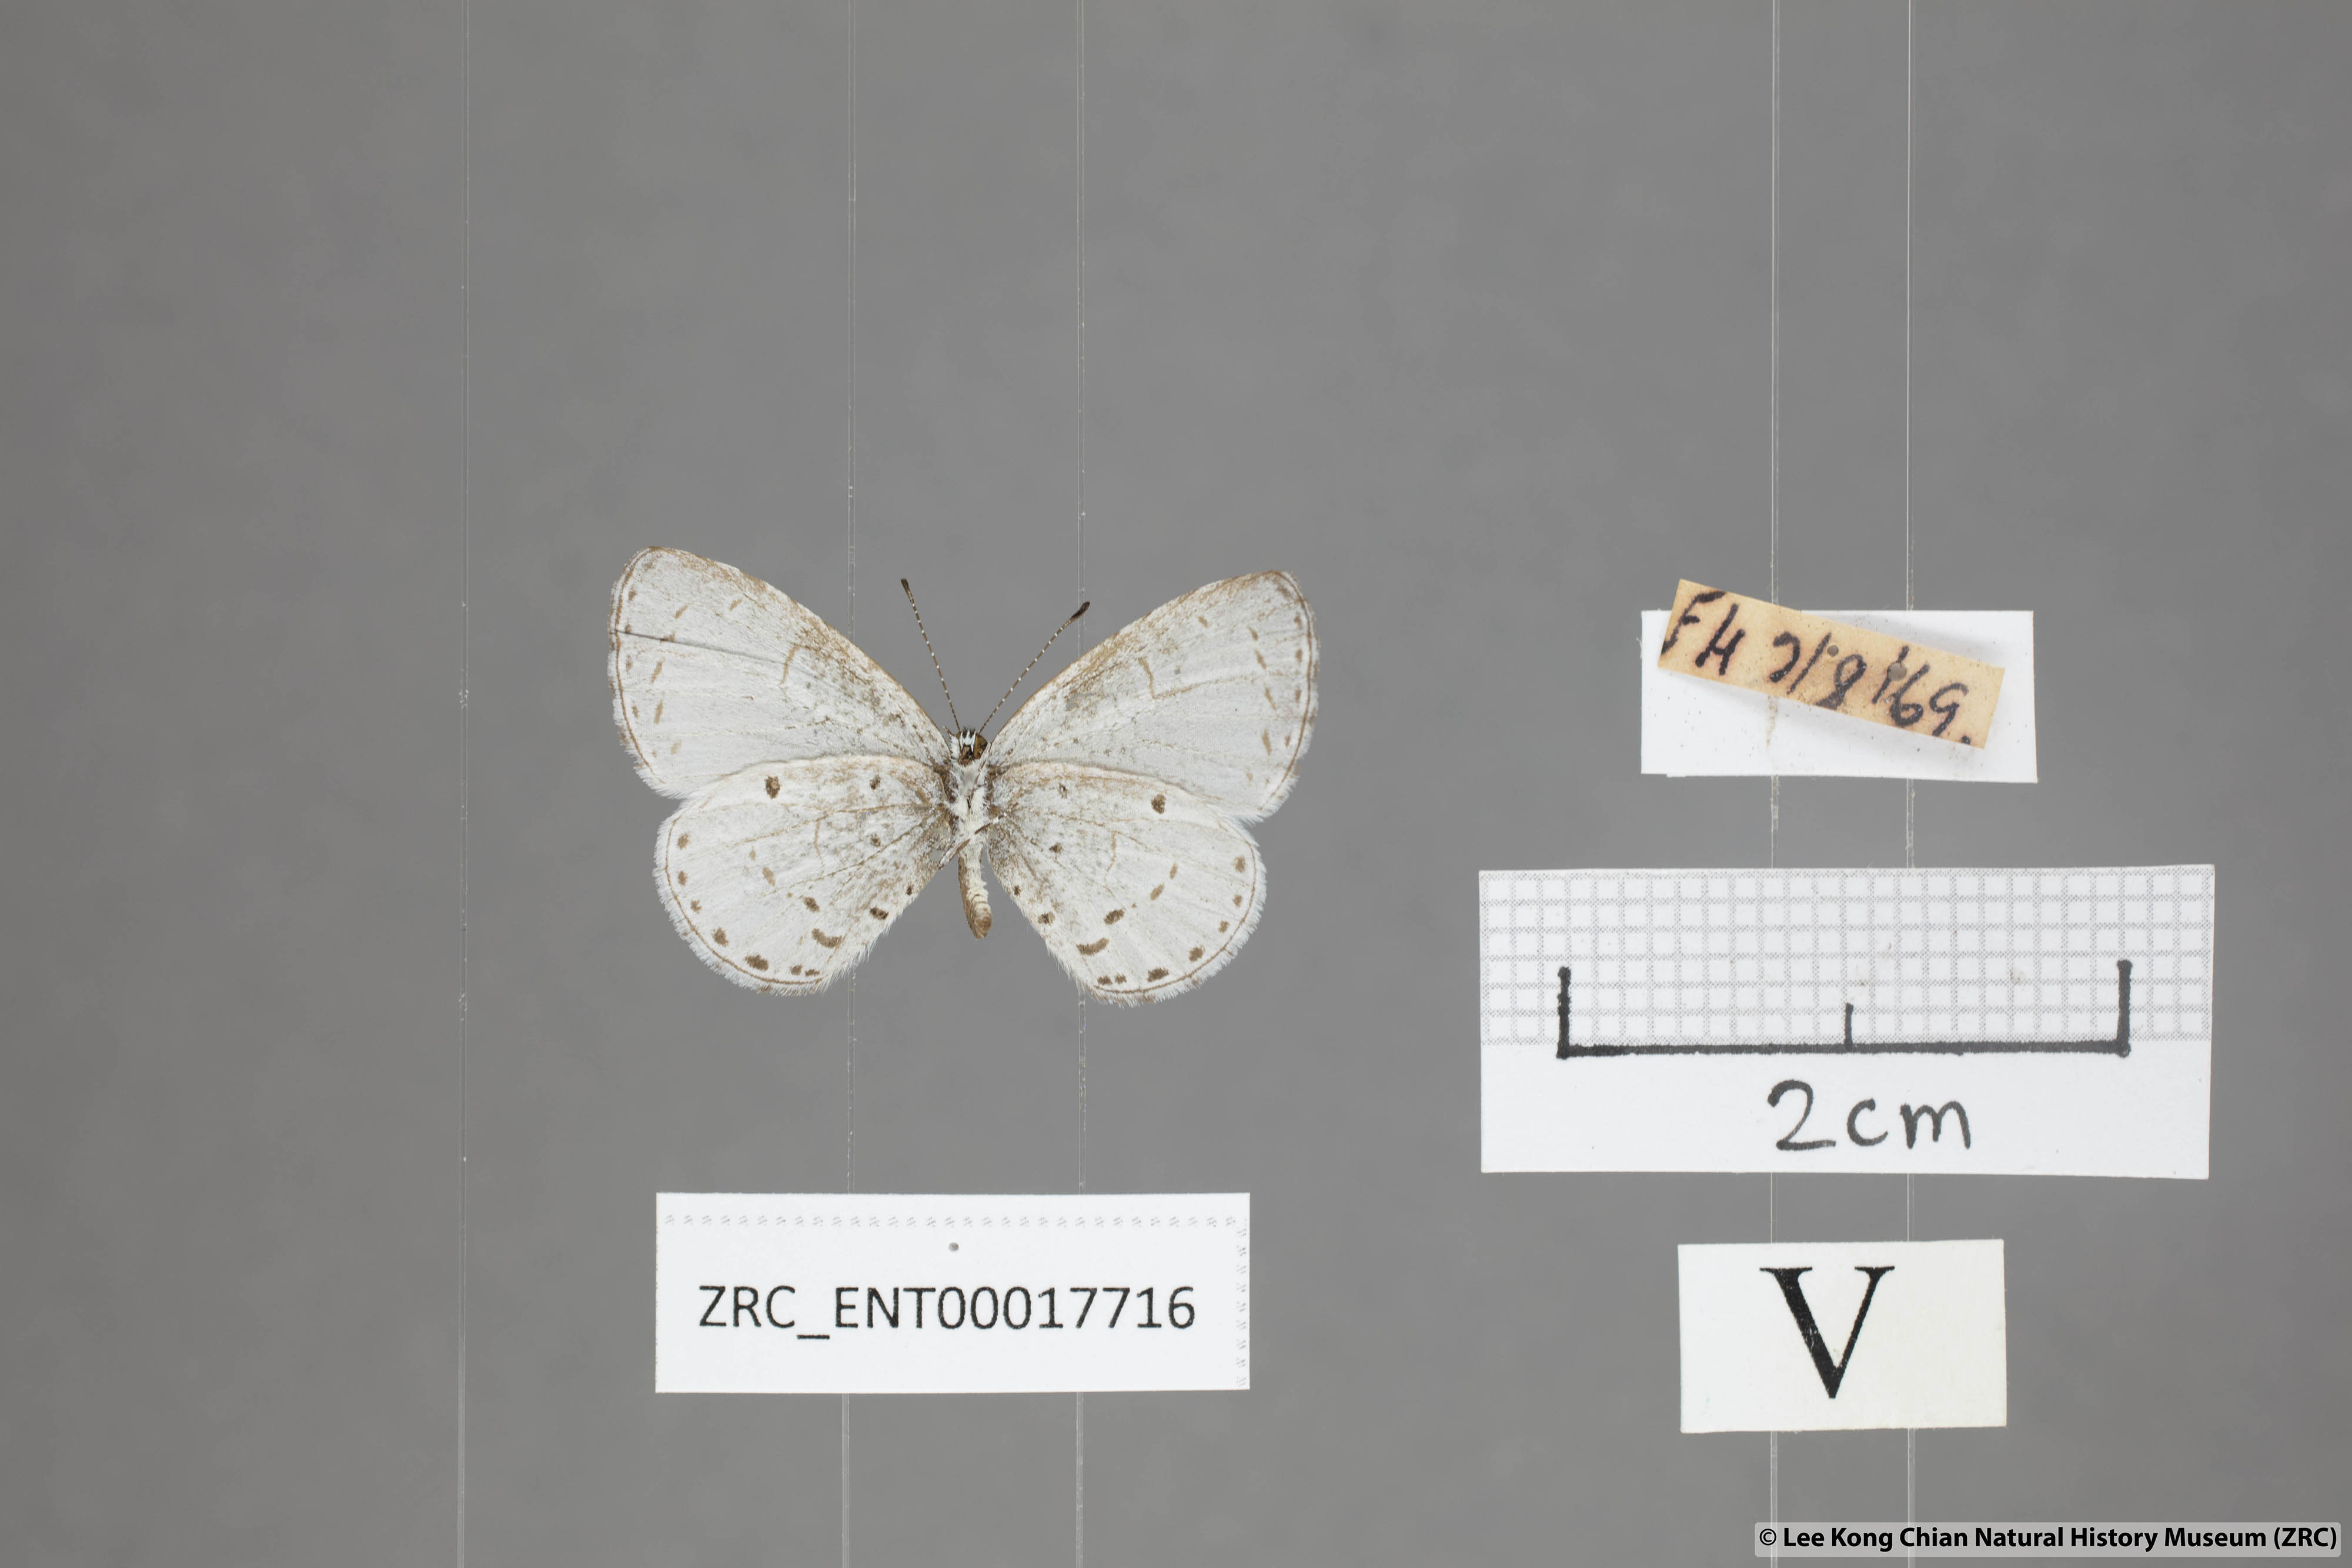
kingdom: Animalia
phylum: Arthropoda
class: Insecta
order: Lepidoptera
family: Lycaenidae
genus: Udara
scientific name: Udara
